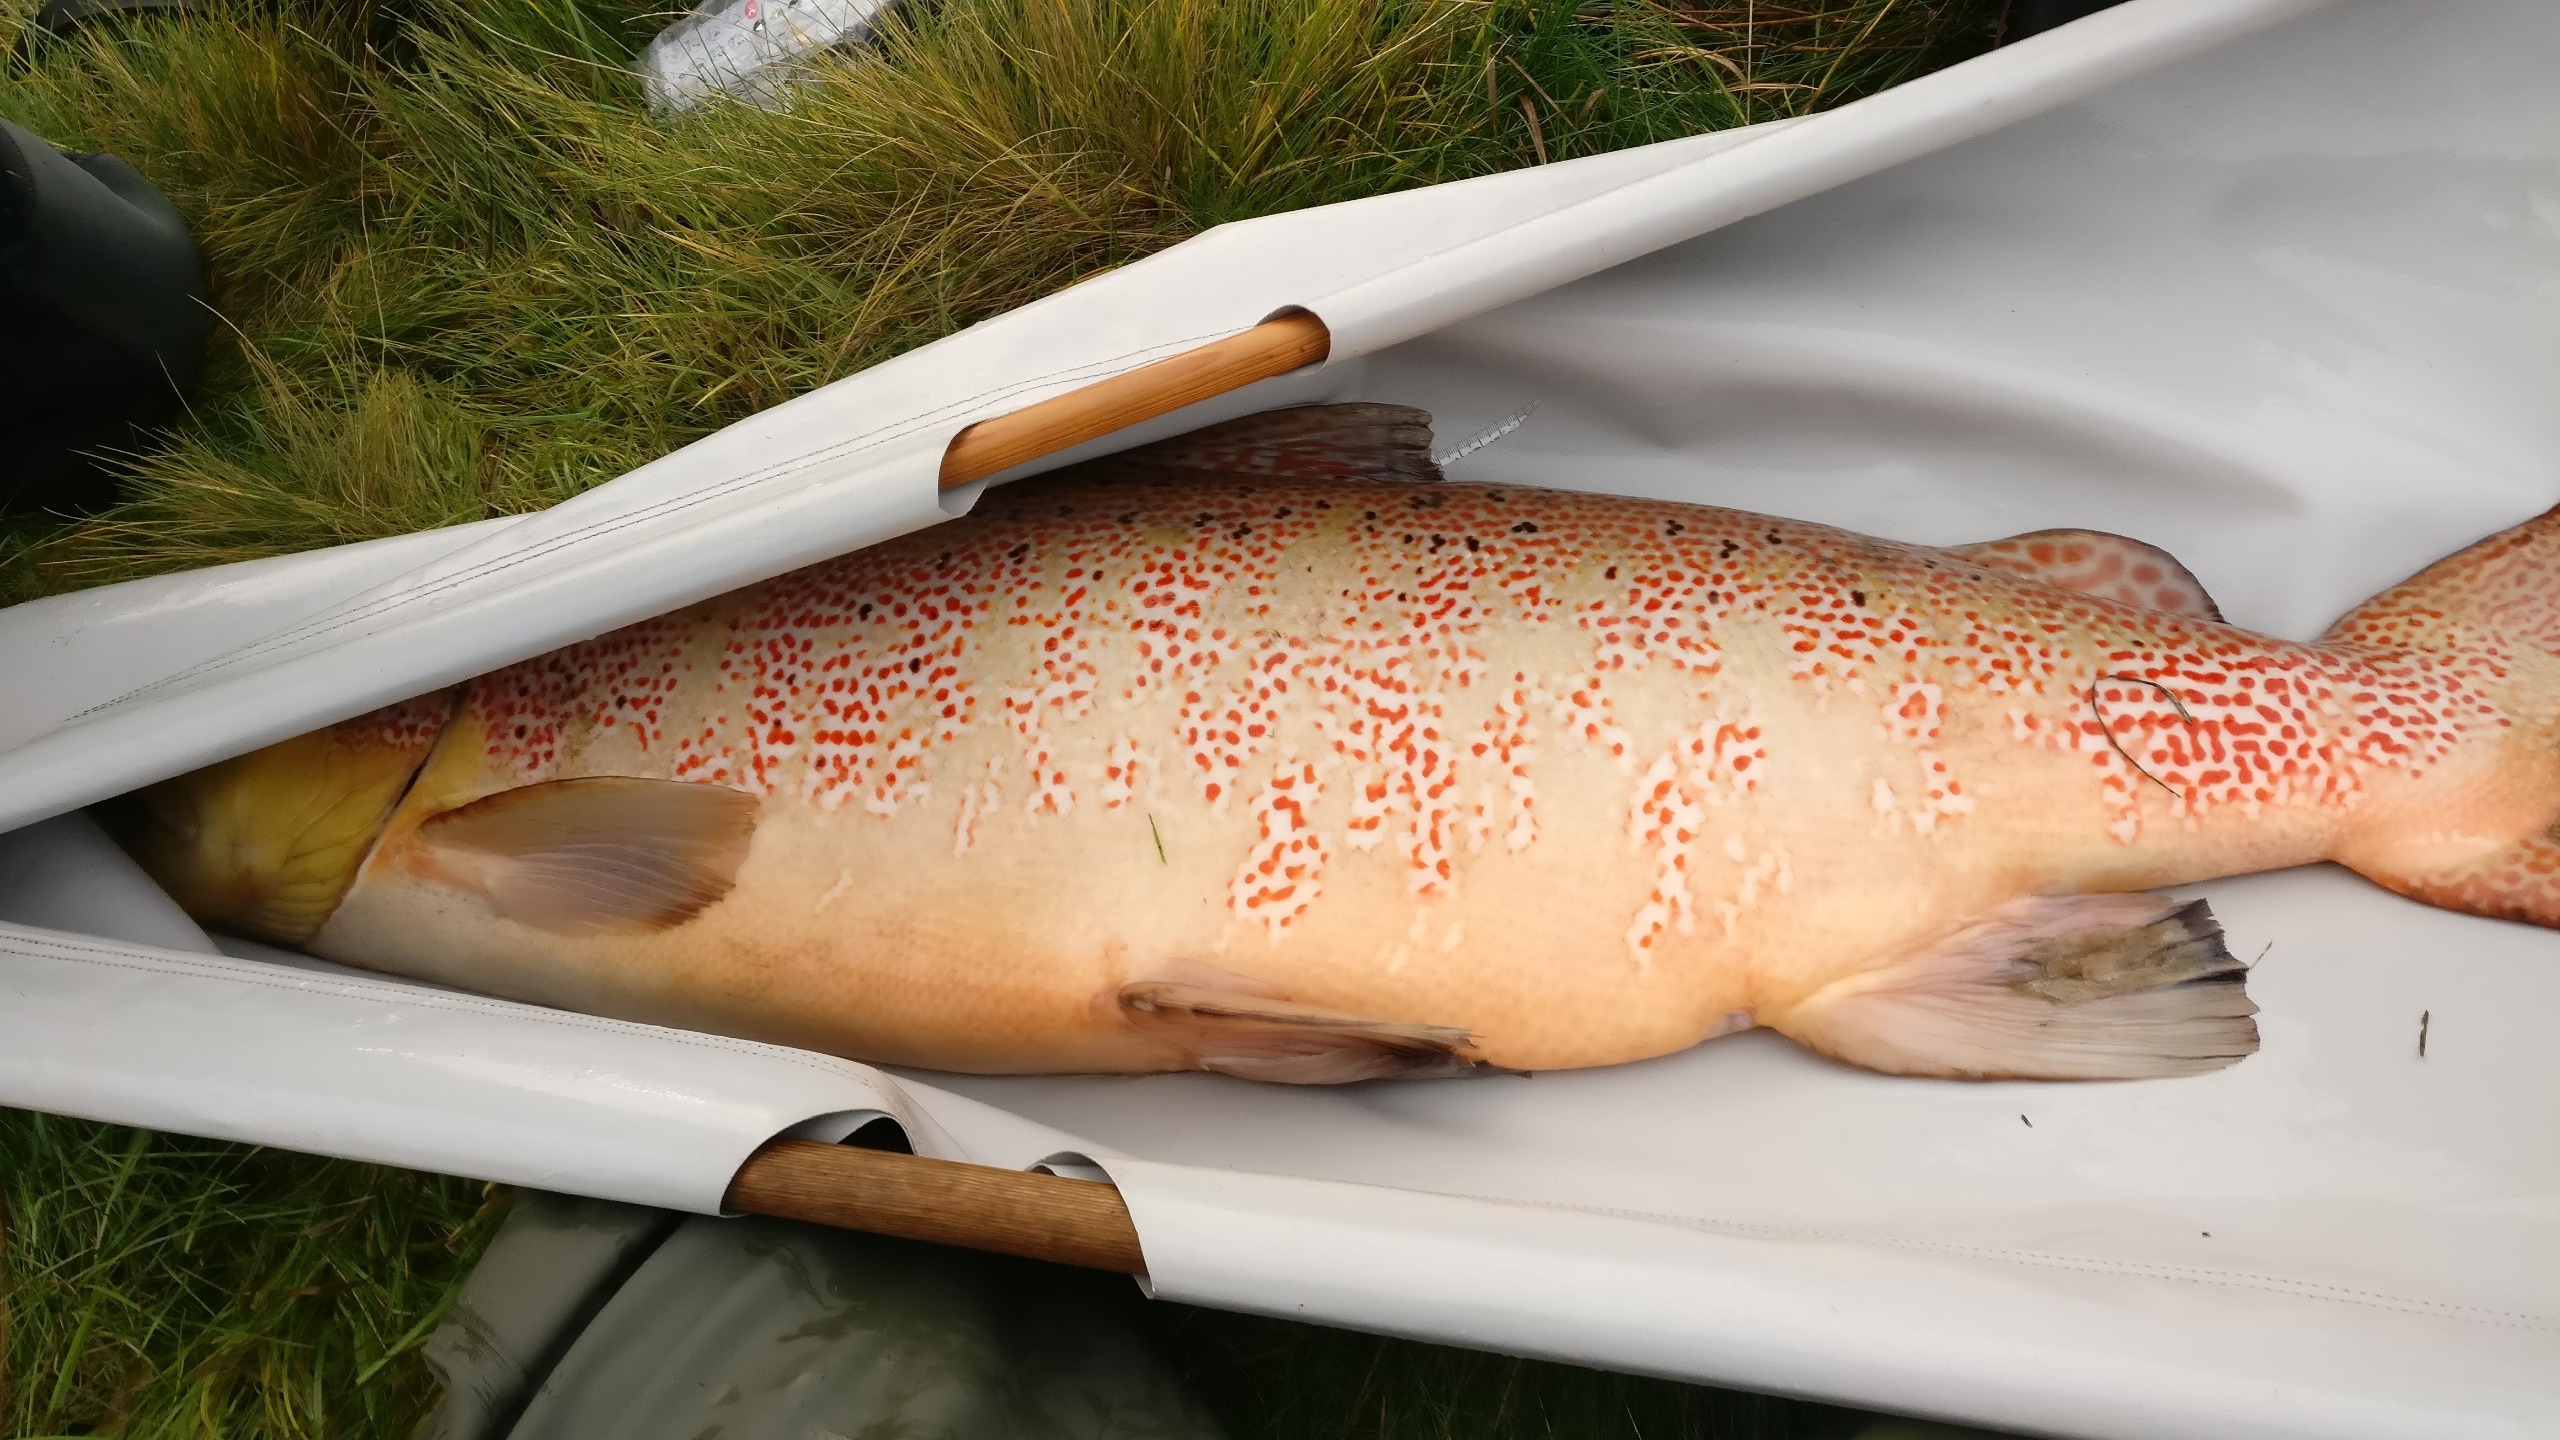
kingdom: Animalia
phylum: Chordata
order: Salmoniformes
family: Salmonidae
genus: Salmo
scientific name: Salmo salar
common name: Laks
